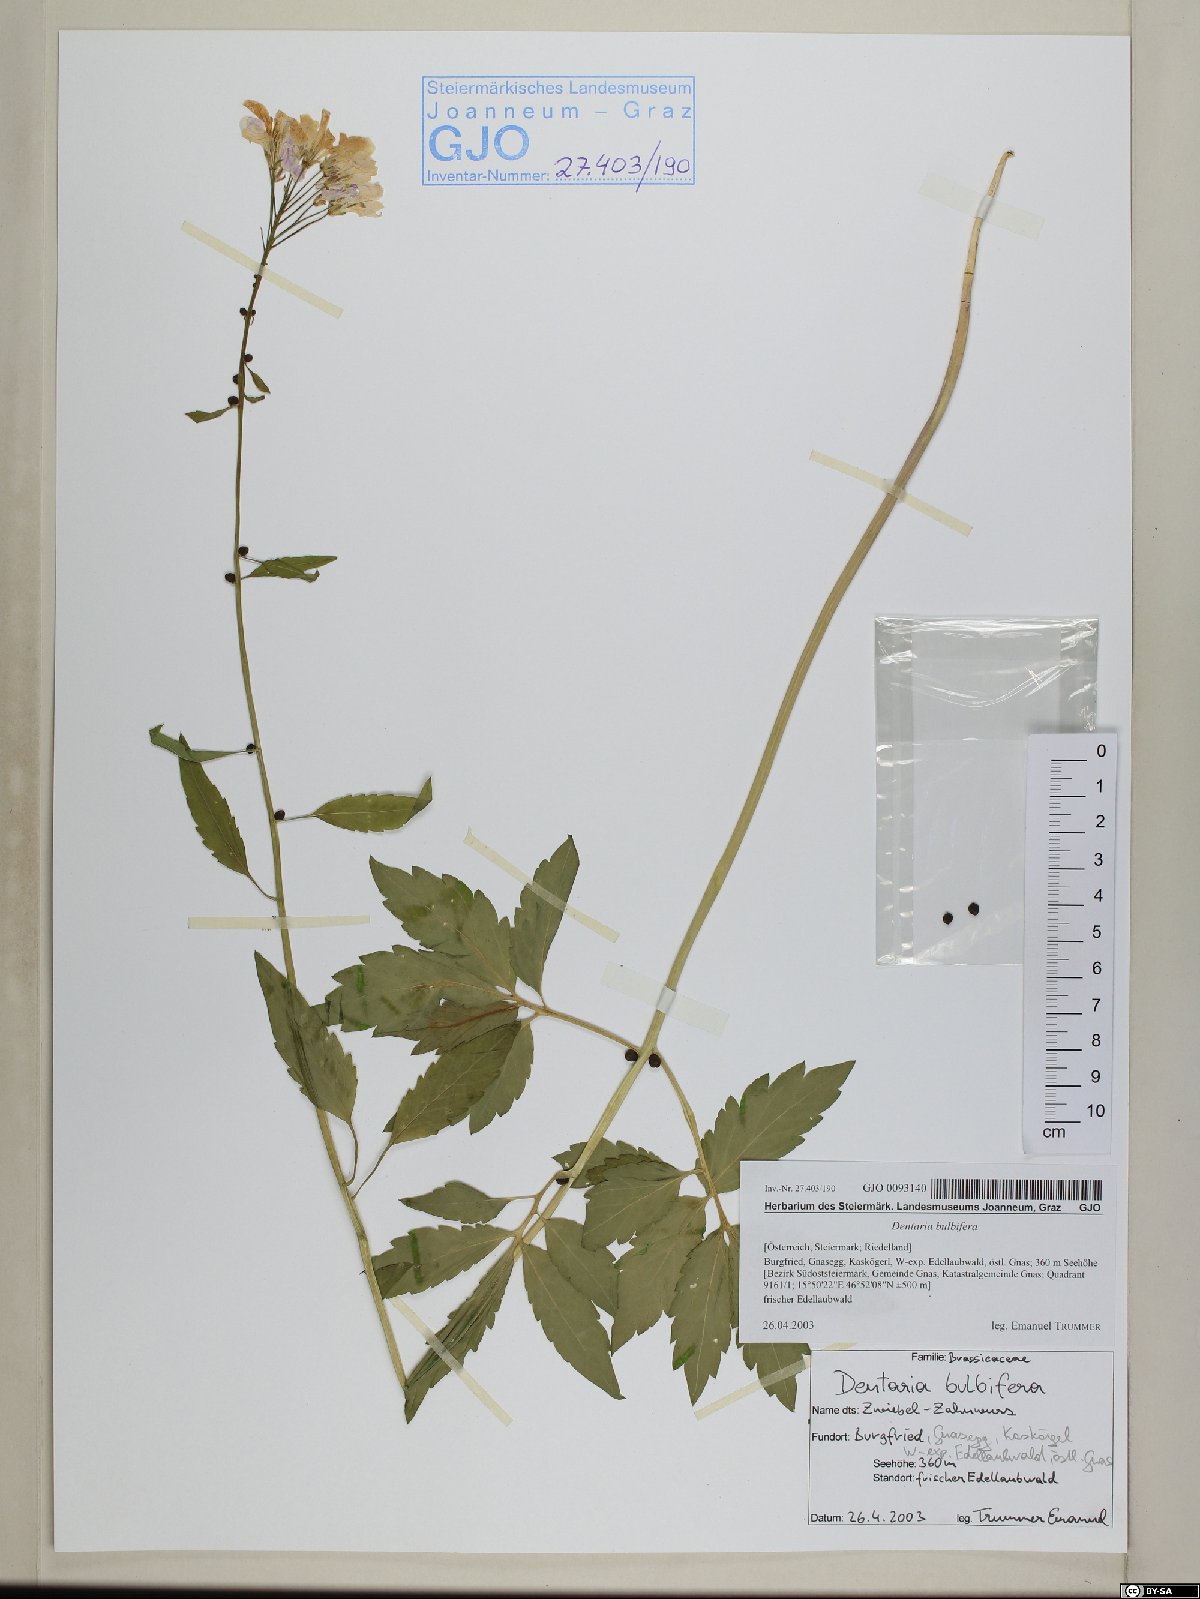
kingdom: Plantae
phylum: Tracheophyta
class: Magnoliopsida
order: Brassicales
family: Brassicaceae
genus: Cardamine
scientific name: Cardamine bulbifera
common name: Coralroot bittercress
